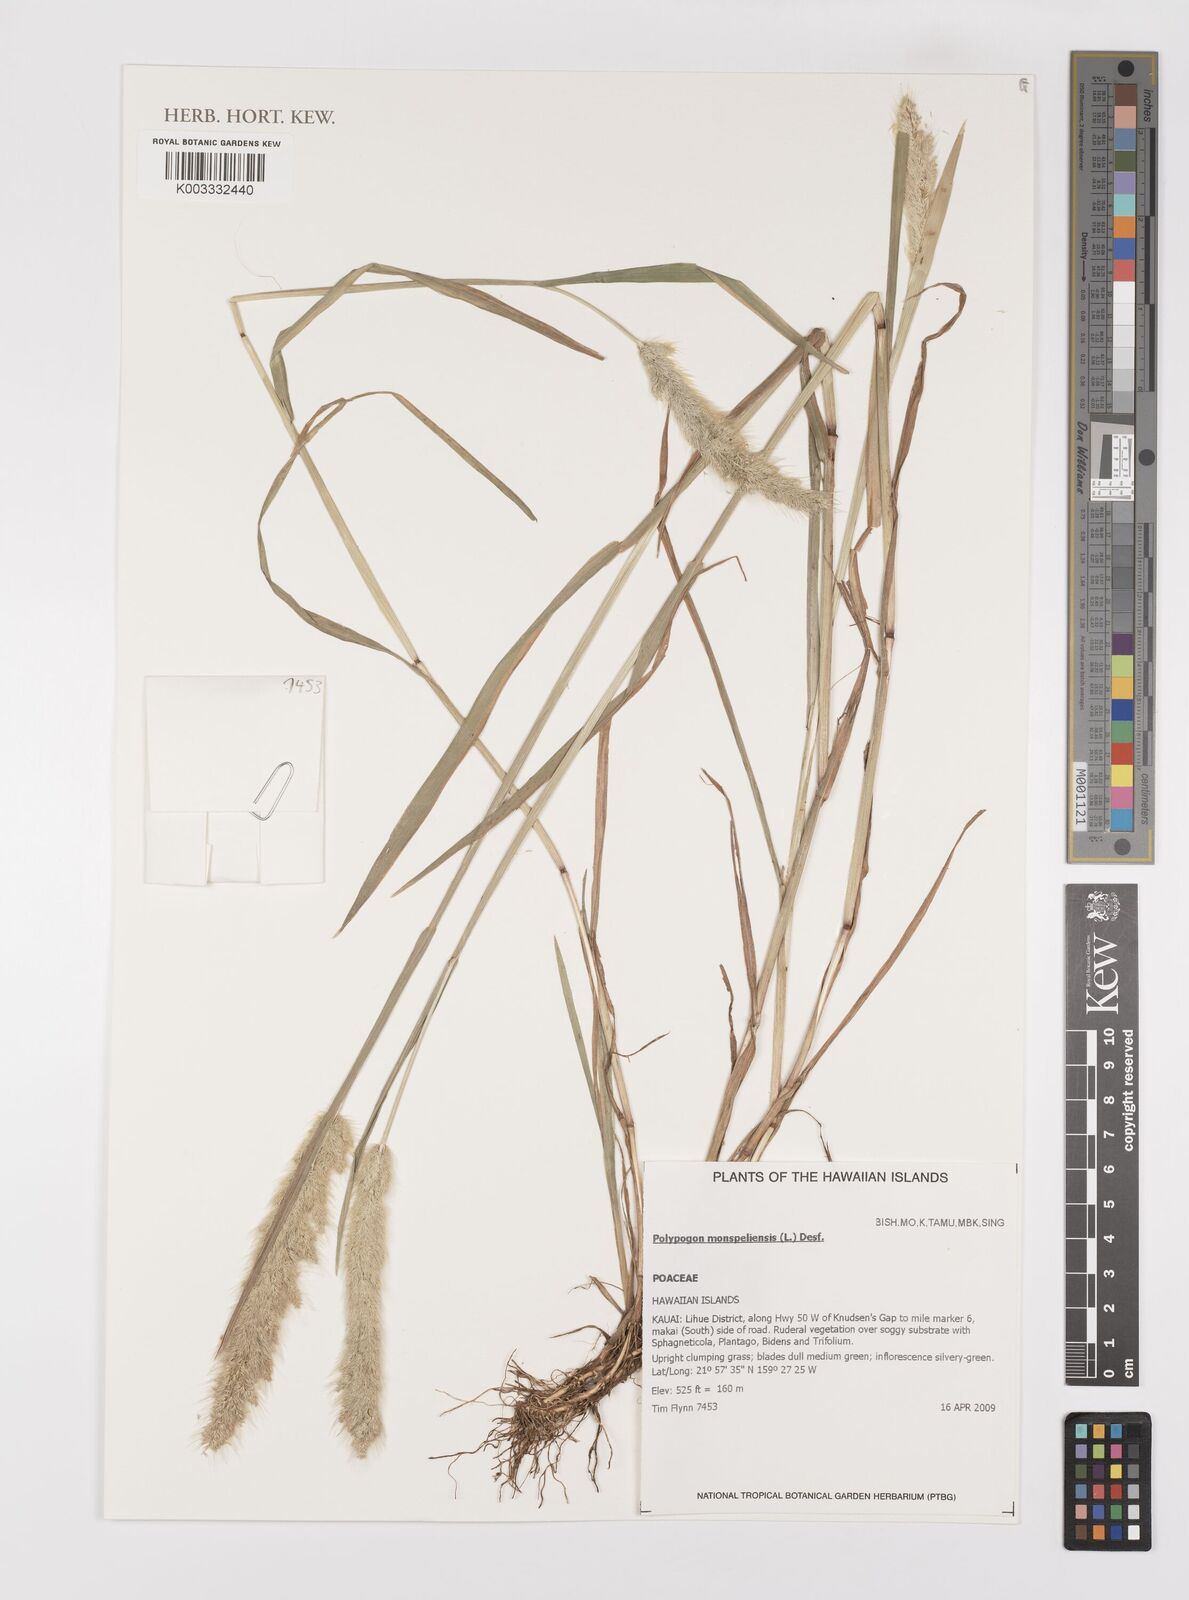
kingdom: Plantae
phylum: Tracheophyta
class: Liliopsida
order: Poales
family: Poaceae
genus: Polypogon
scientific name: Polypogon monspeliensis
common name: Annual rabbitsfoot grass
